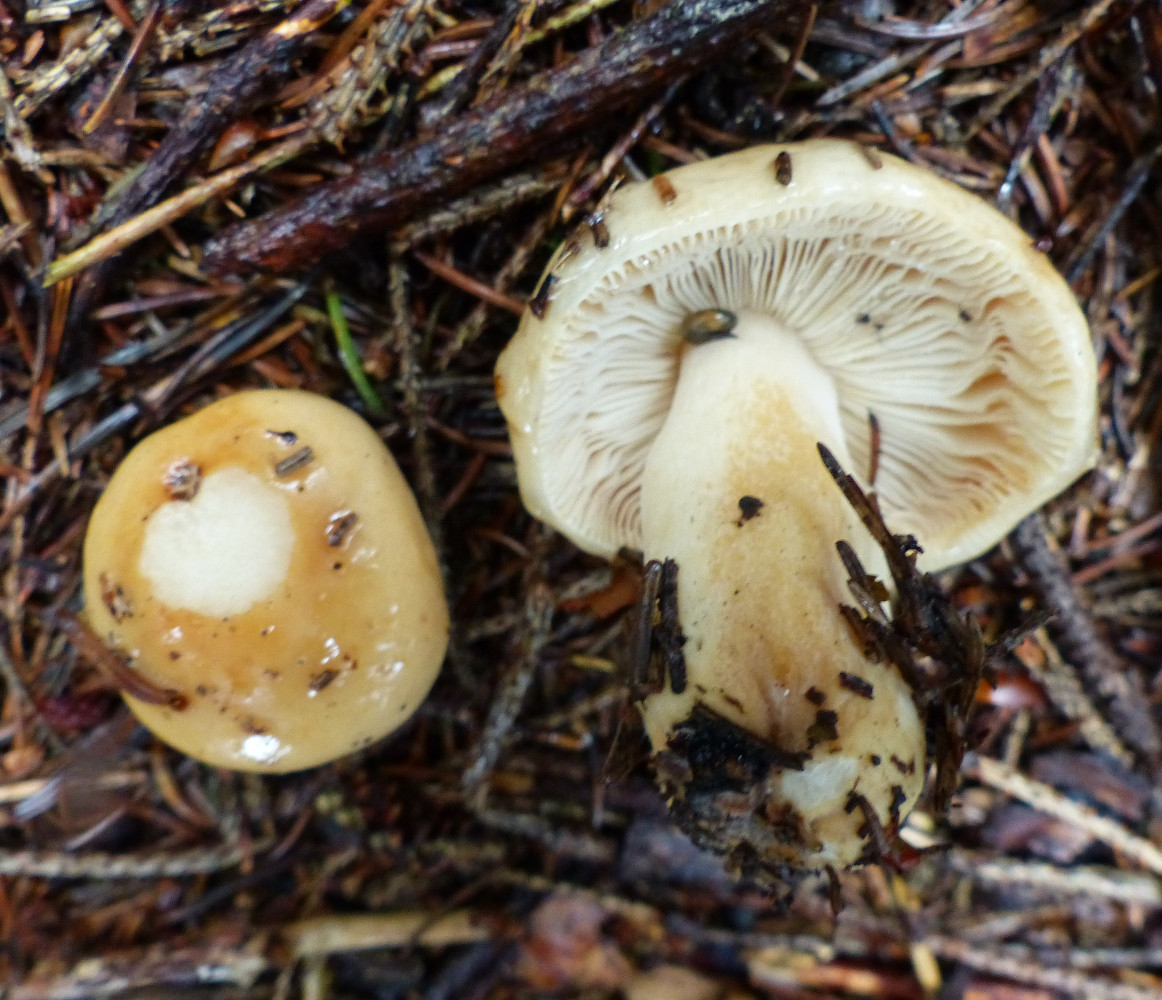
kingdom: Fungi
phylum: Basidiomycota
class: Agaricomycetes
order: Russulales
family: Russulaceae
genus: Russula
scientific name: Russula fellea
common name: galde-skørhat
